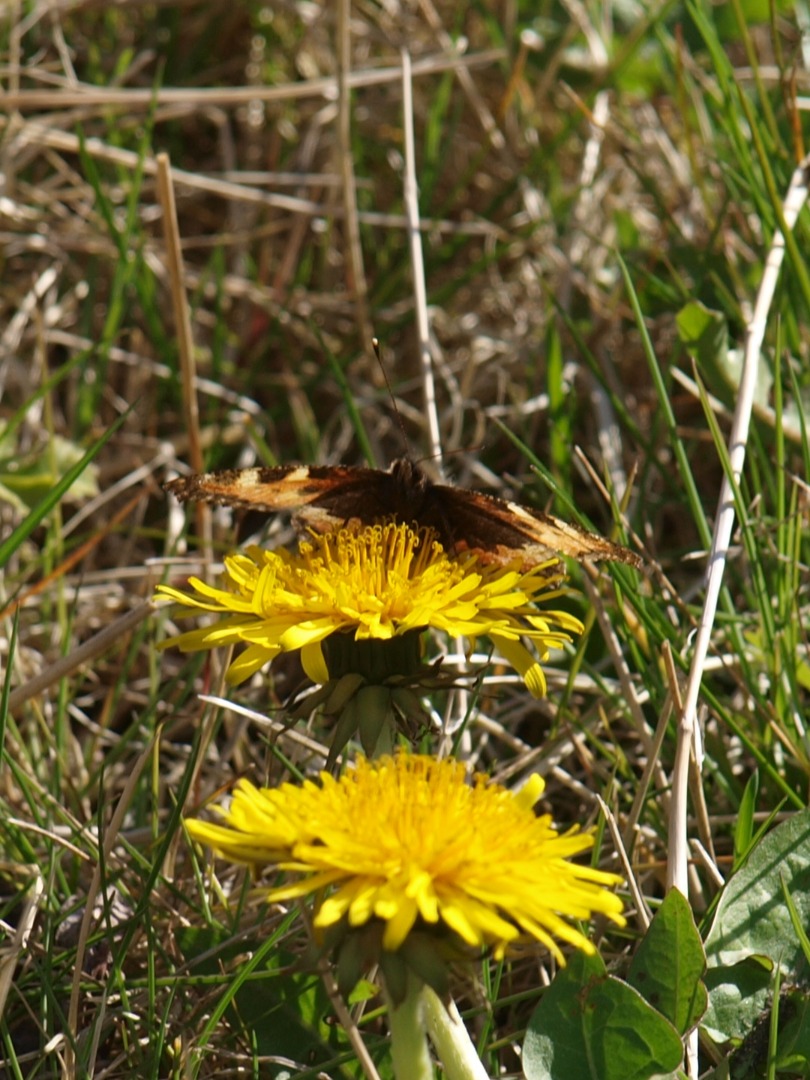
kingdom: Animalia
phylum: Arthropoda
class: Insecta
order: Lepidoptera
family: Nymphalidae
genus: Aglais
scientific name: Aglais urticae
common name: Nældens takvinge
